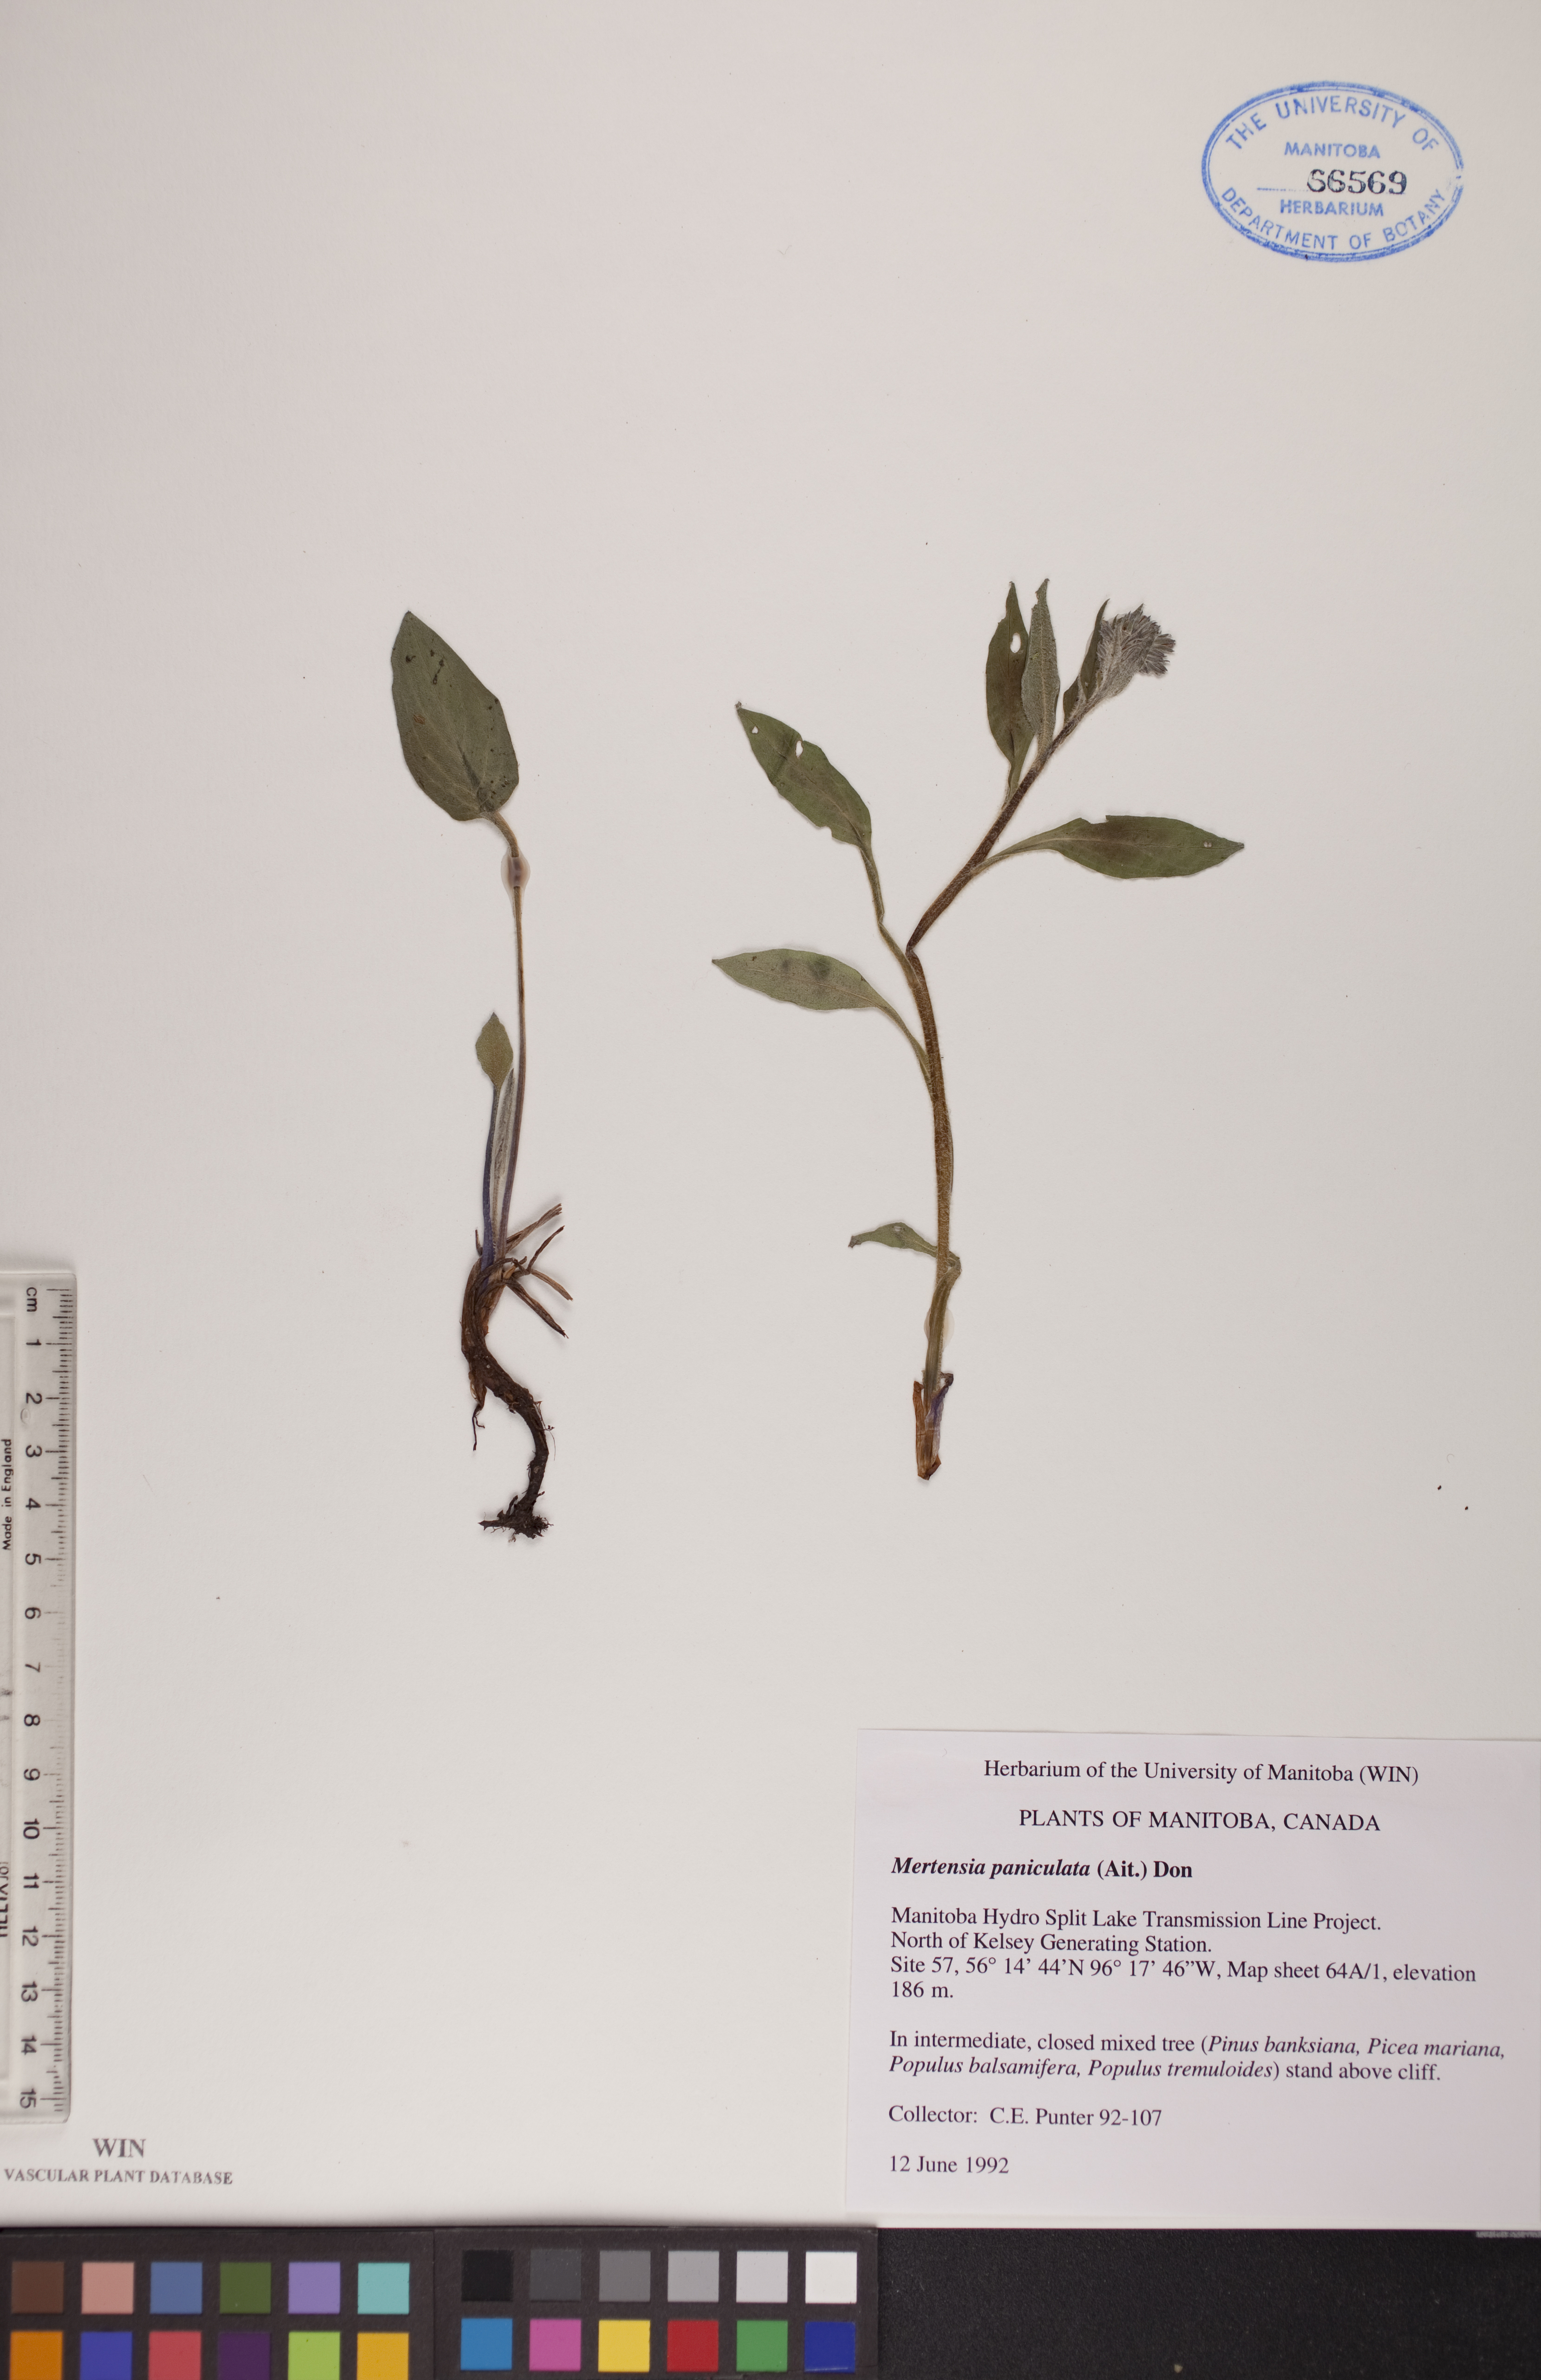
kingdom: Plantae
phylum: Tracheophyta
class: Magnoliopsida
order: Boraginales
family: Boraginaceae
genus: Mertensia
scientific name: Mertensia paniculata
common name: Panicled bluebells
